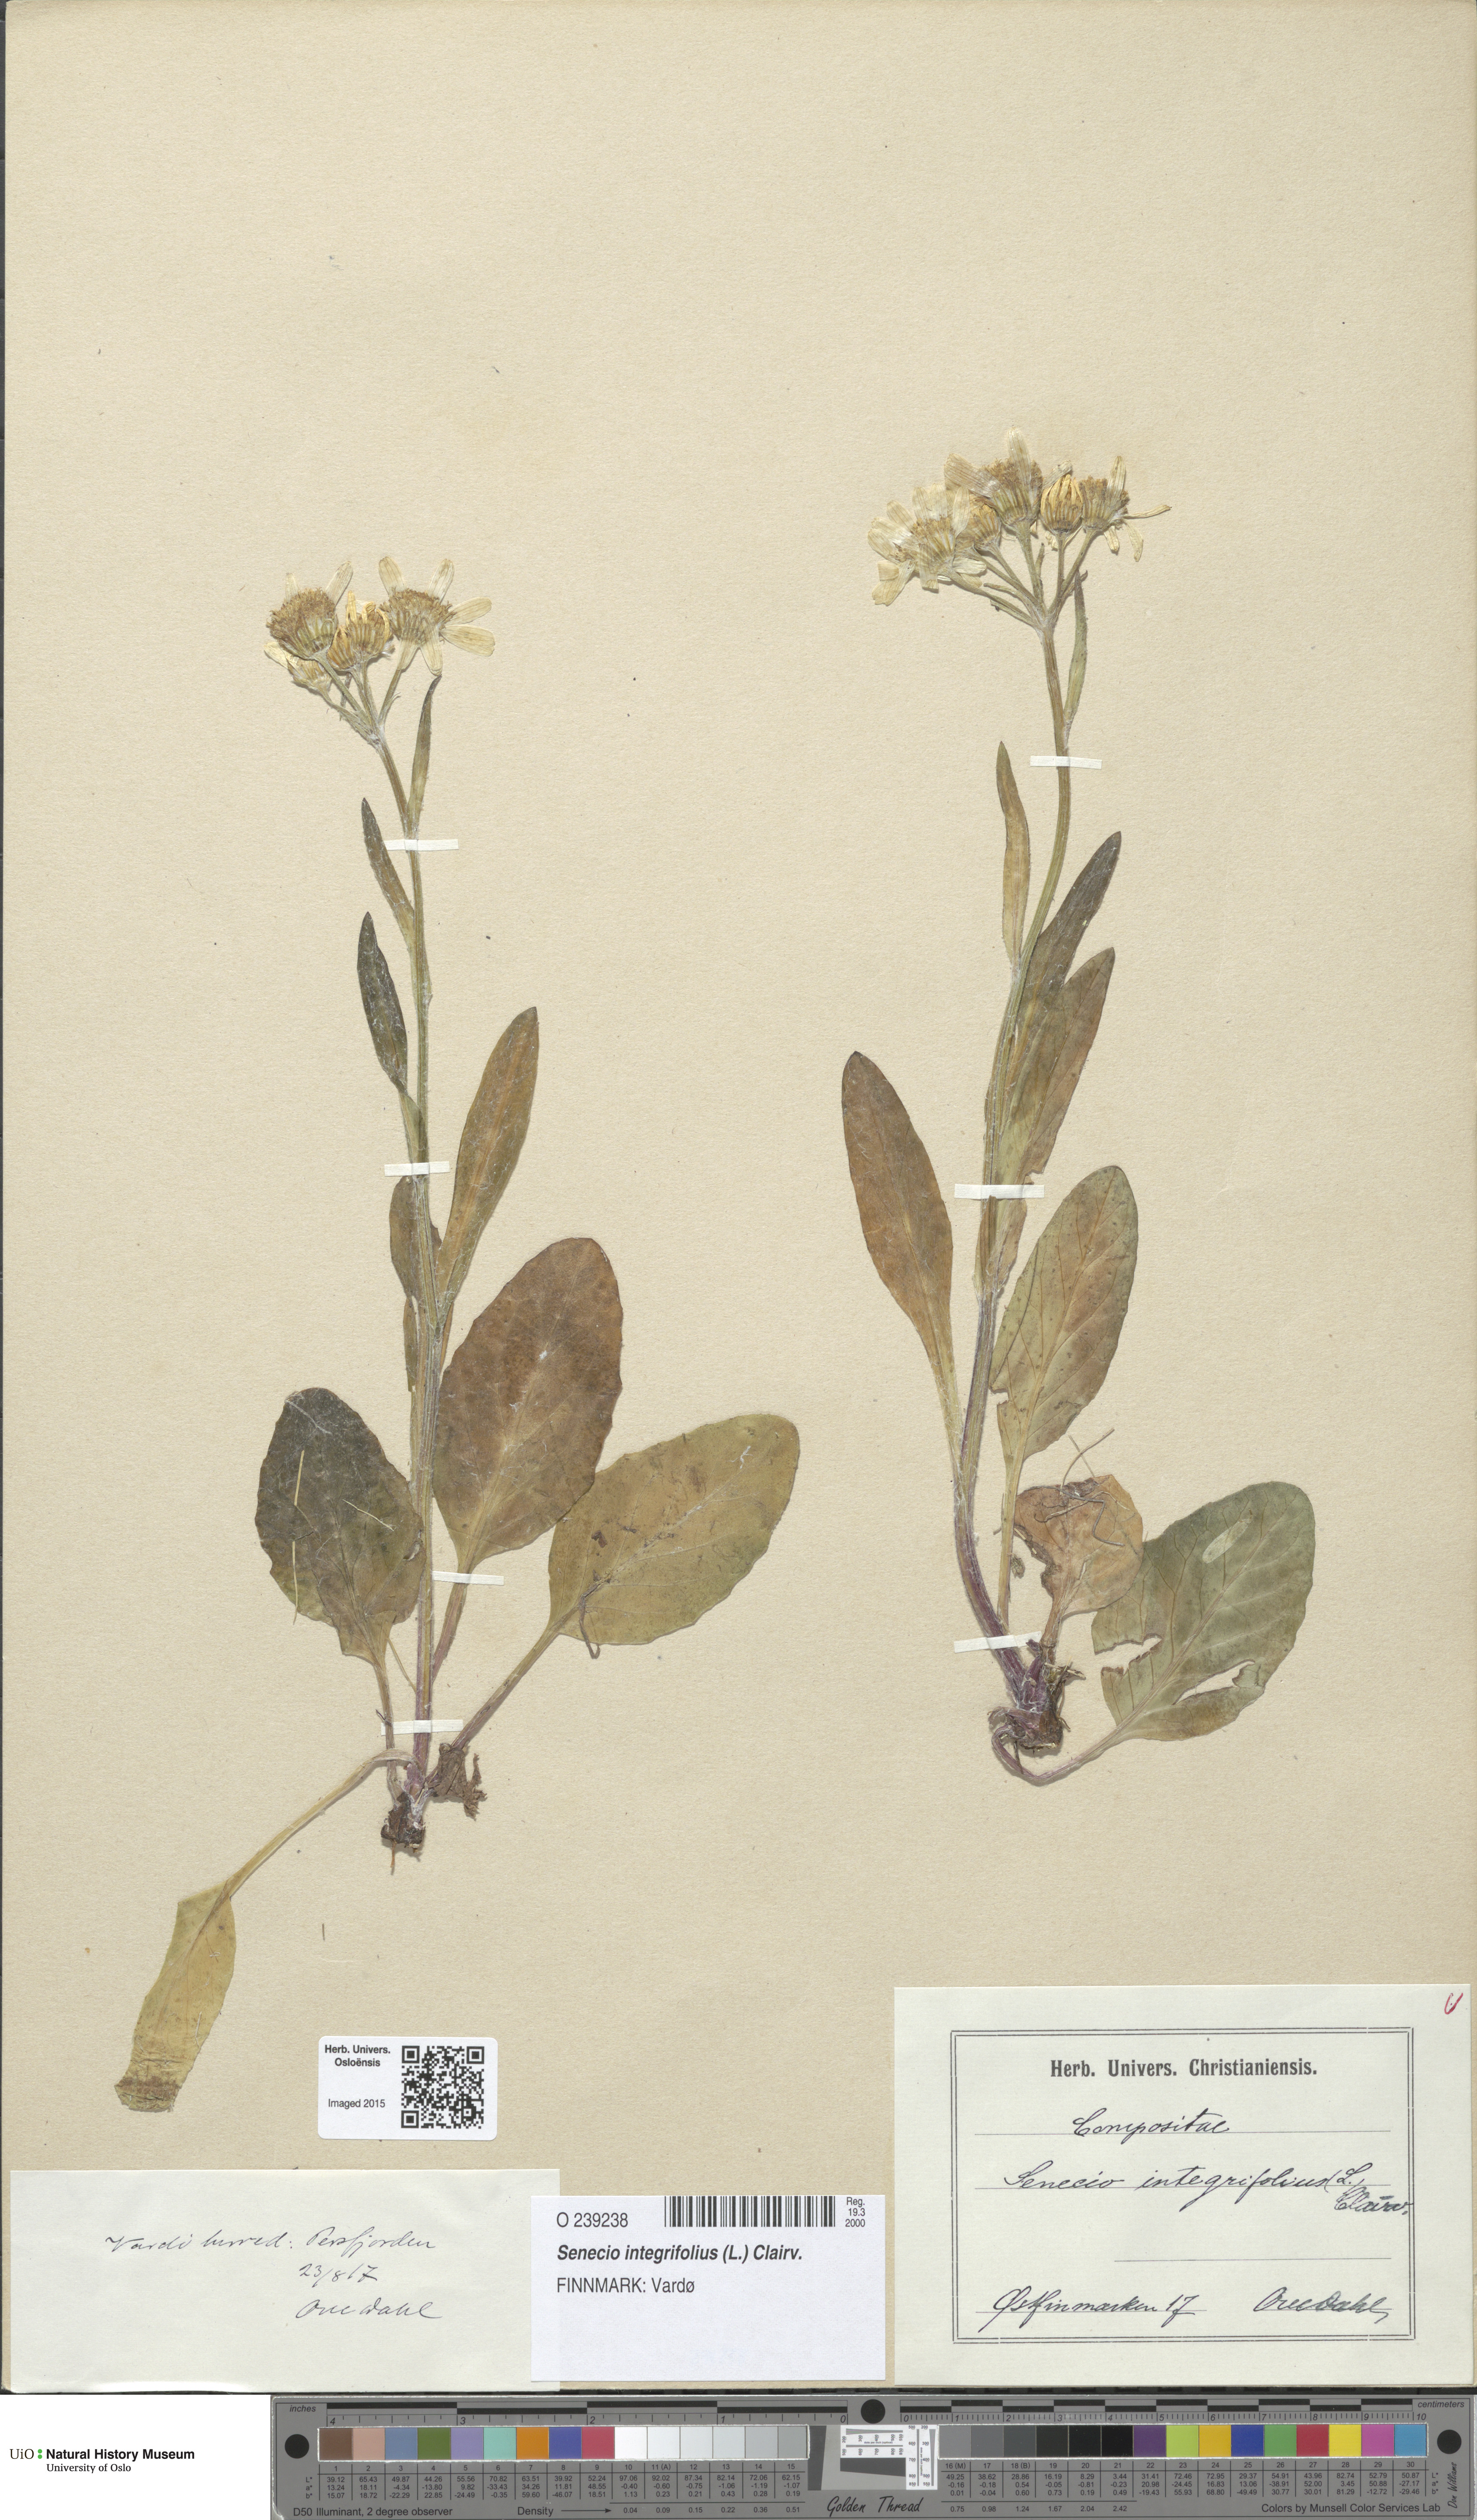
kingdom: Plantae
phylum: Tracheophyta
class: Magnoliopsida
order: Asterales
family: Asteraceae
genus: Tephroseris
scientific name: Tephroseris integrifolia
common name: Field fleawort
